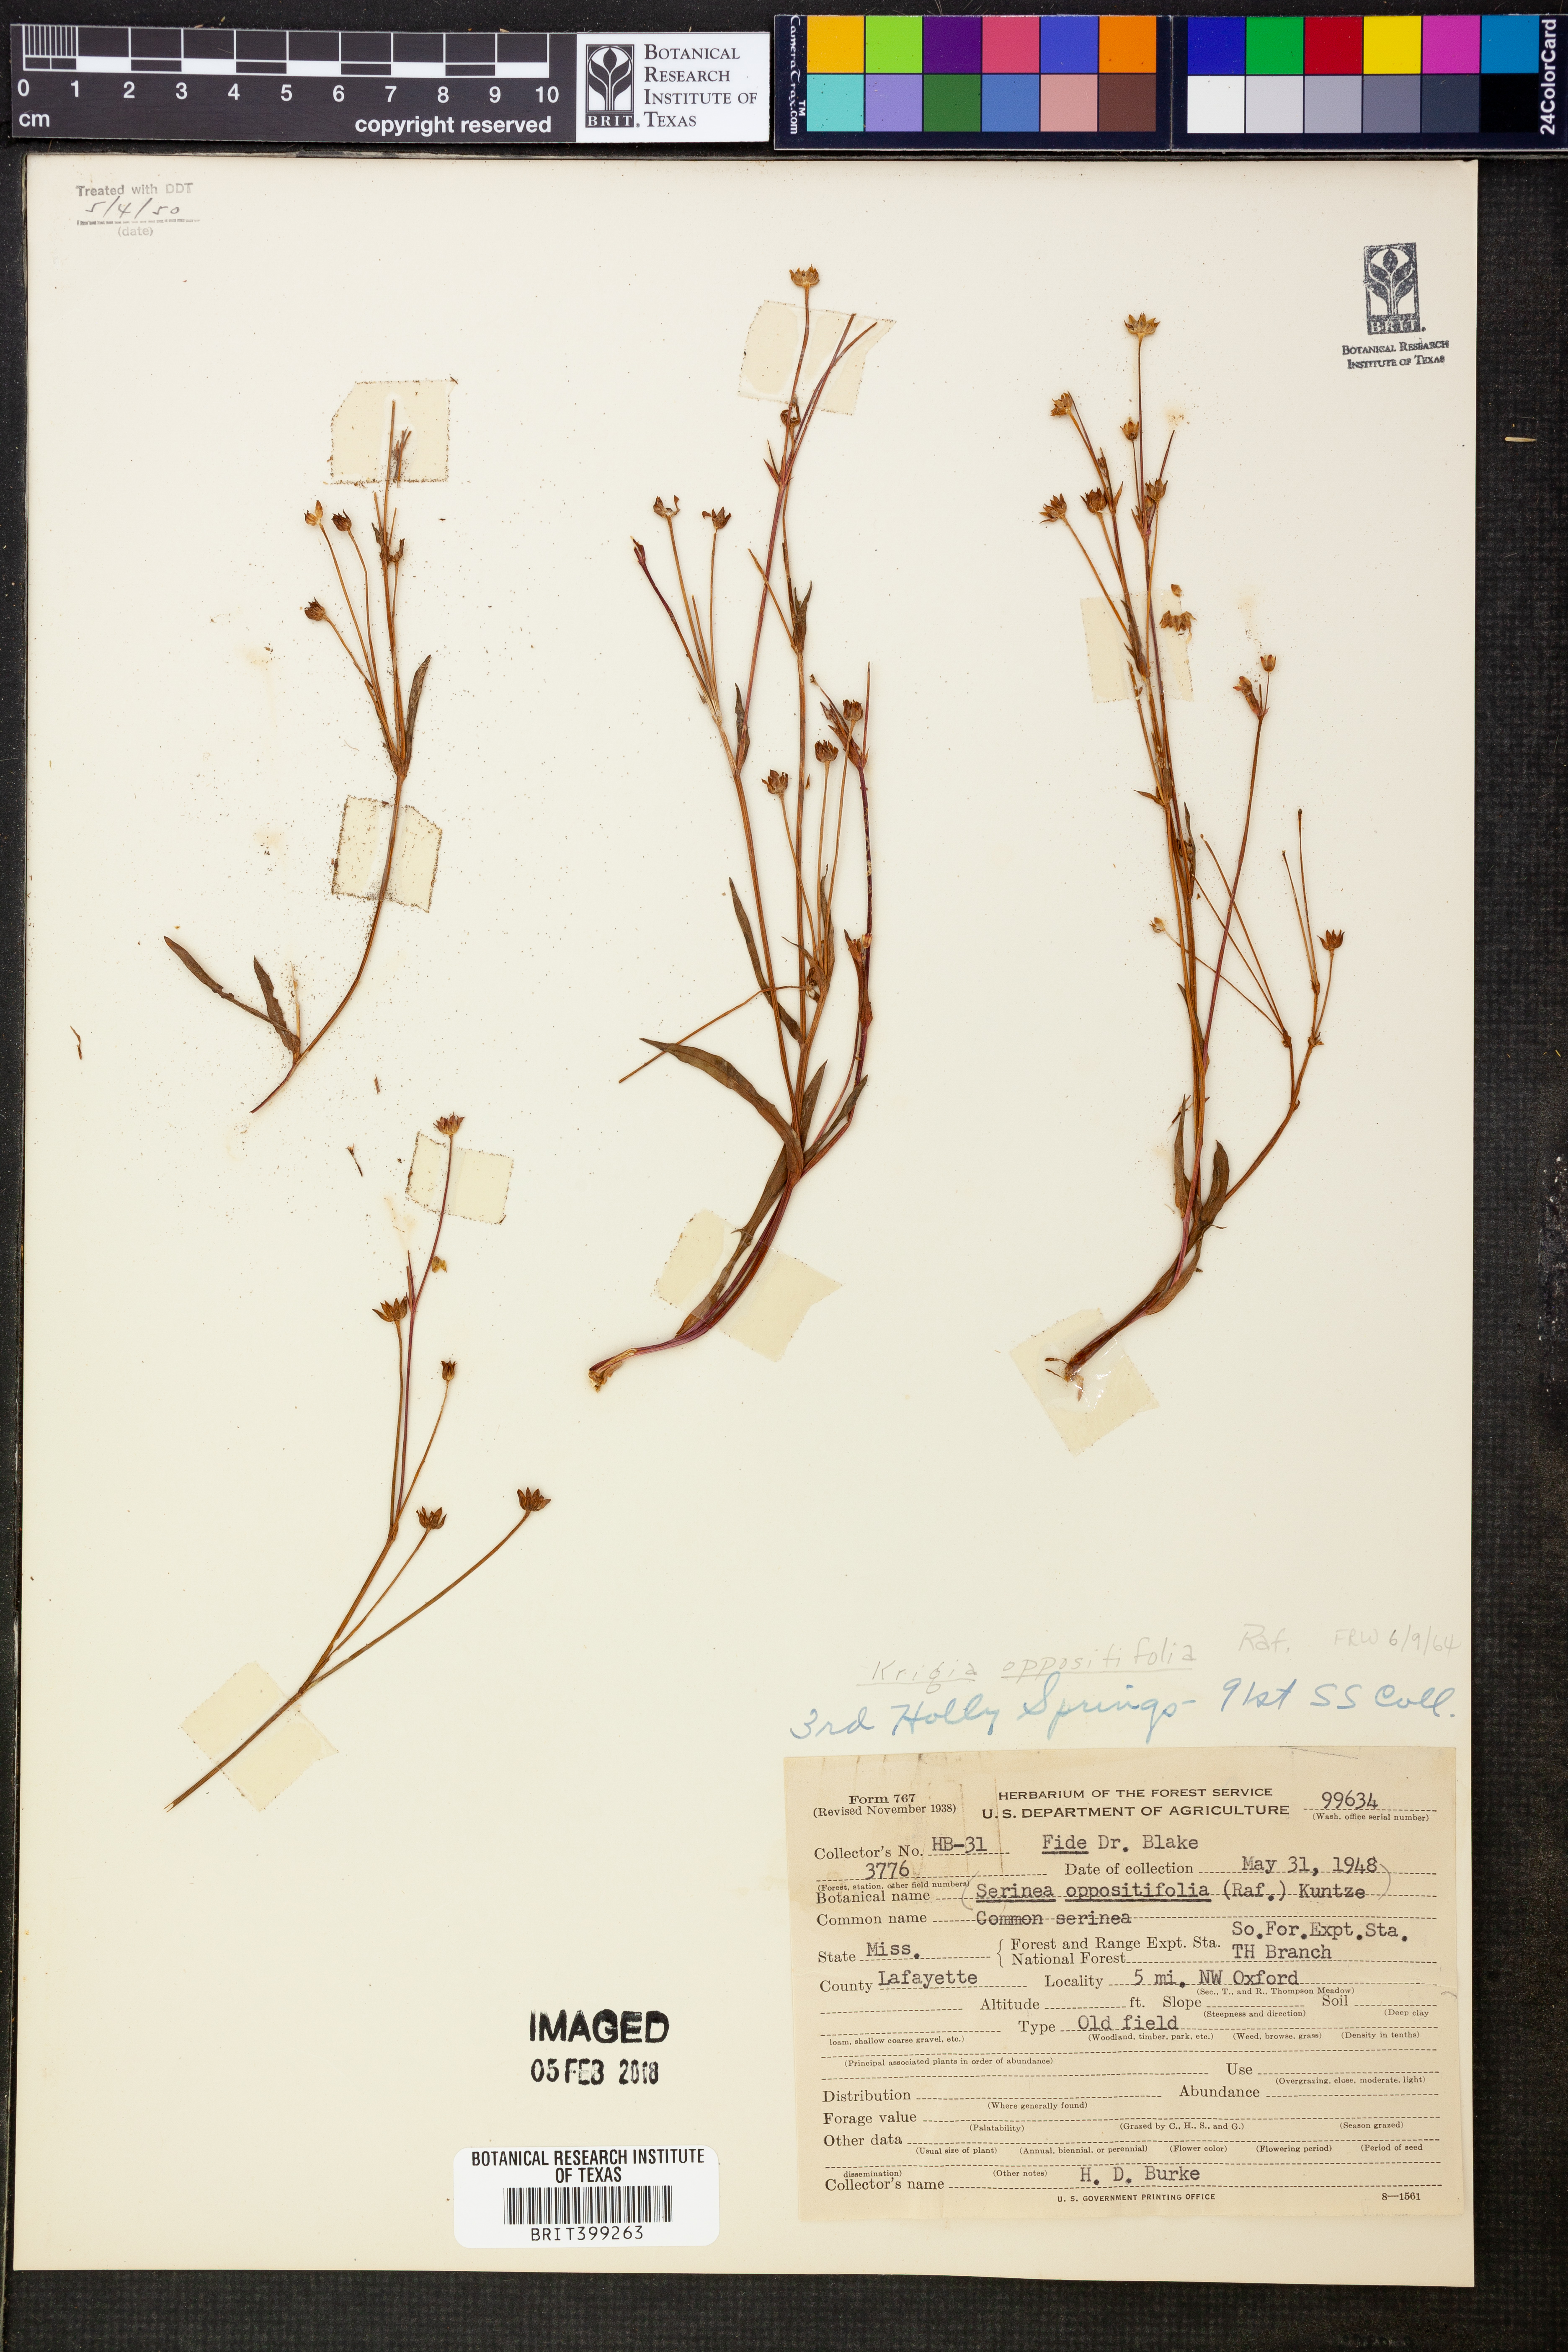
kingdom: Plantae
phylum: Tracheophyta
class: Magnoliopsida
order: Asterales
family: Asteraceae
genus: Krigia
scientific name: Krigia cespitosa
